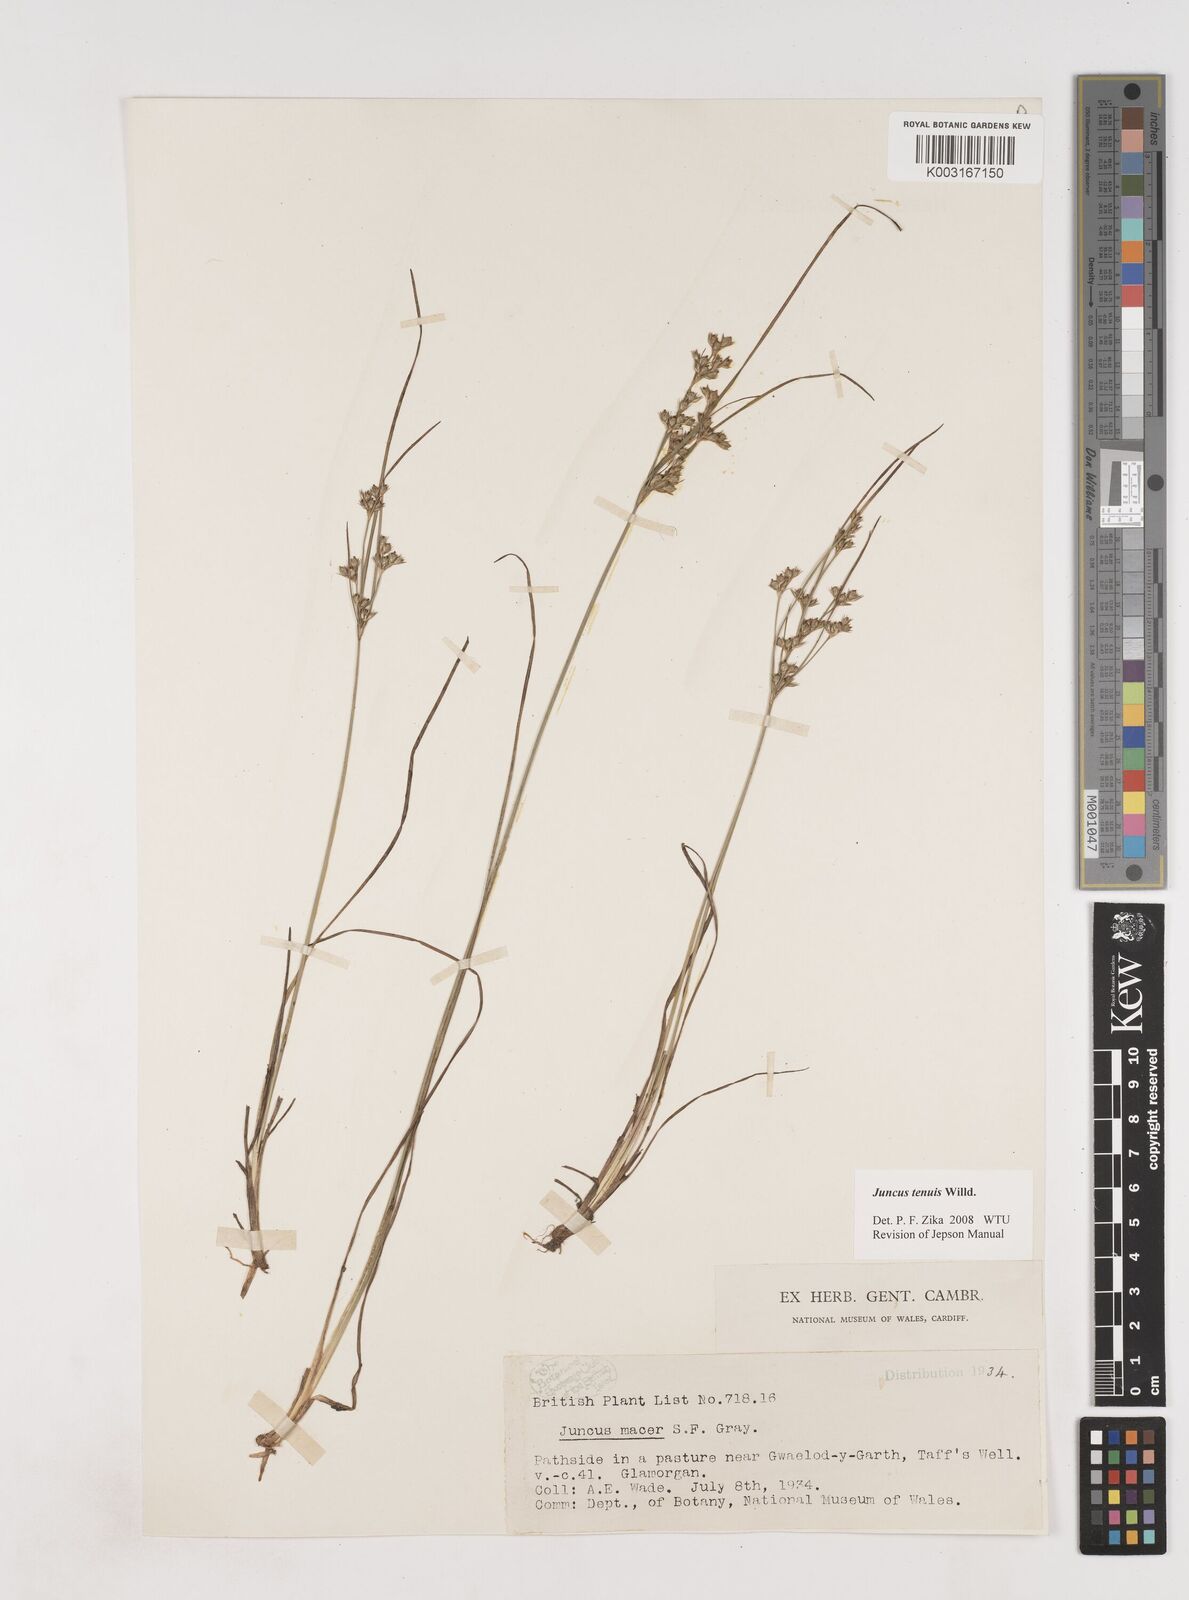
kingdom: Plantae
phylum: Tracheophyta
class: Liliopsida
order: Poales
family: Juncaceae
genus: Juncus
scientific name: Juncus tenuis
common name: Slender rush
